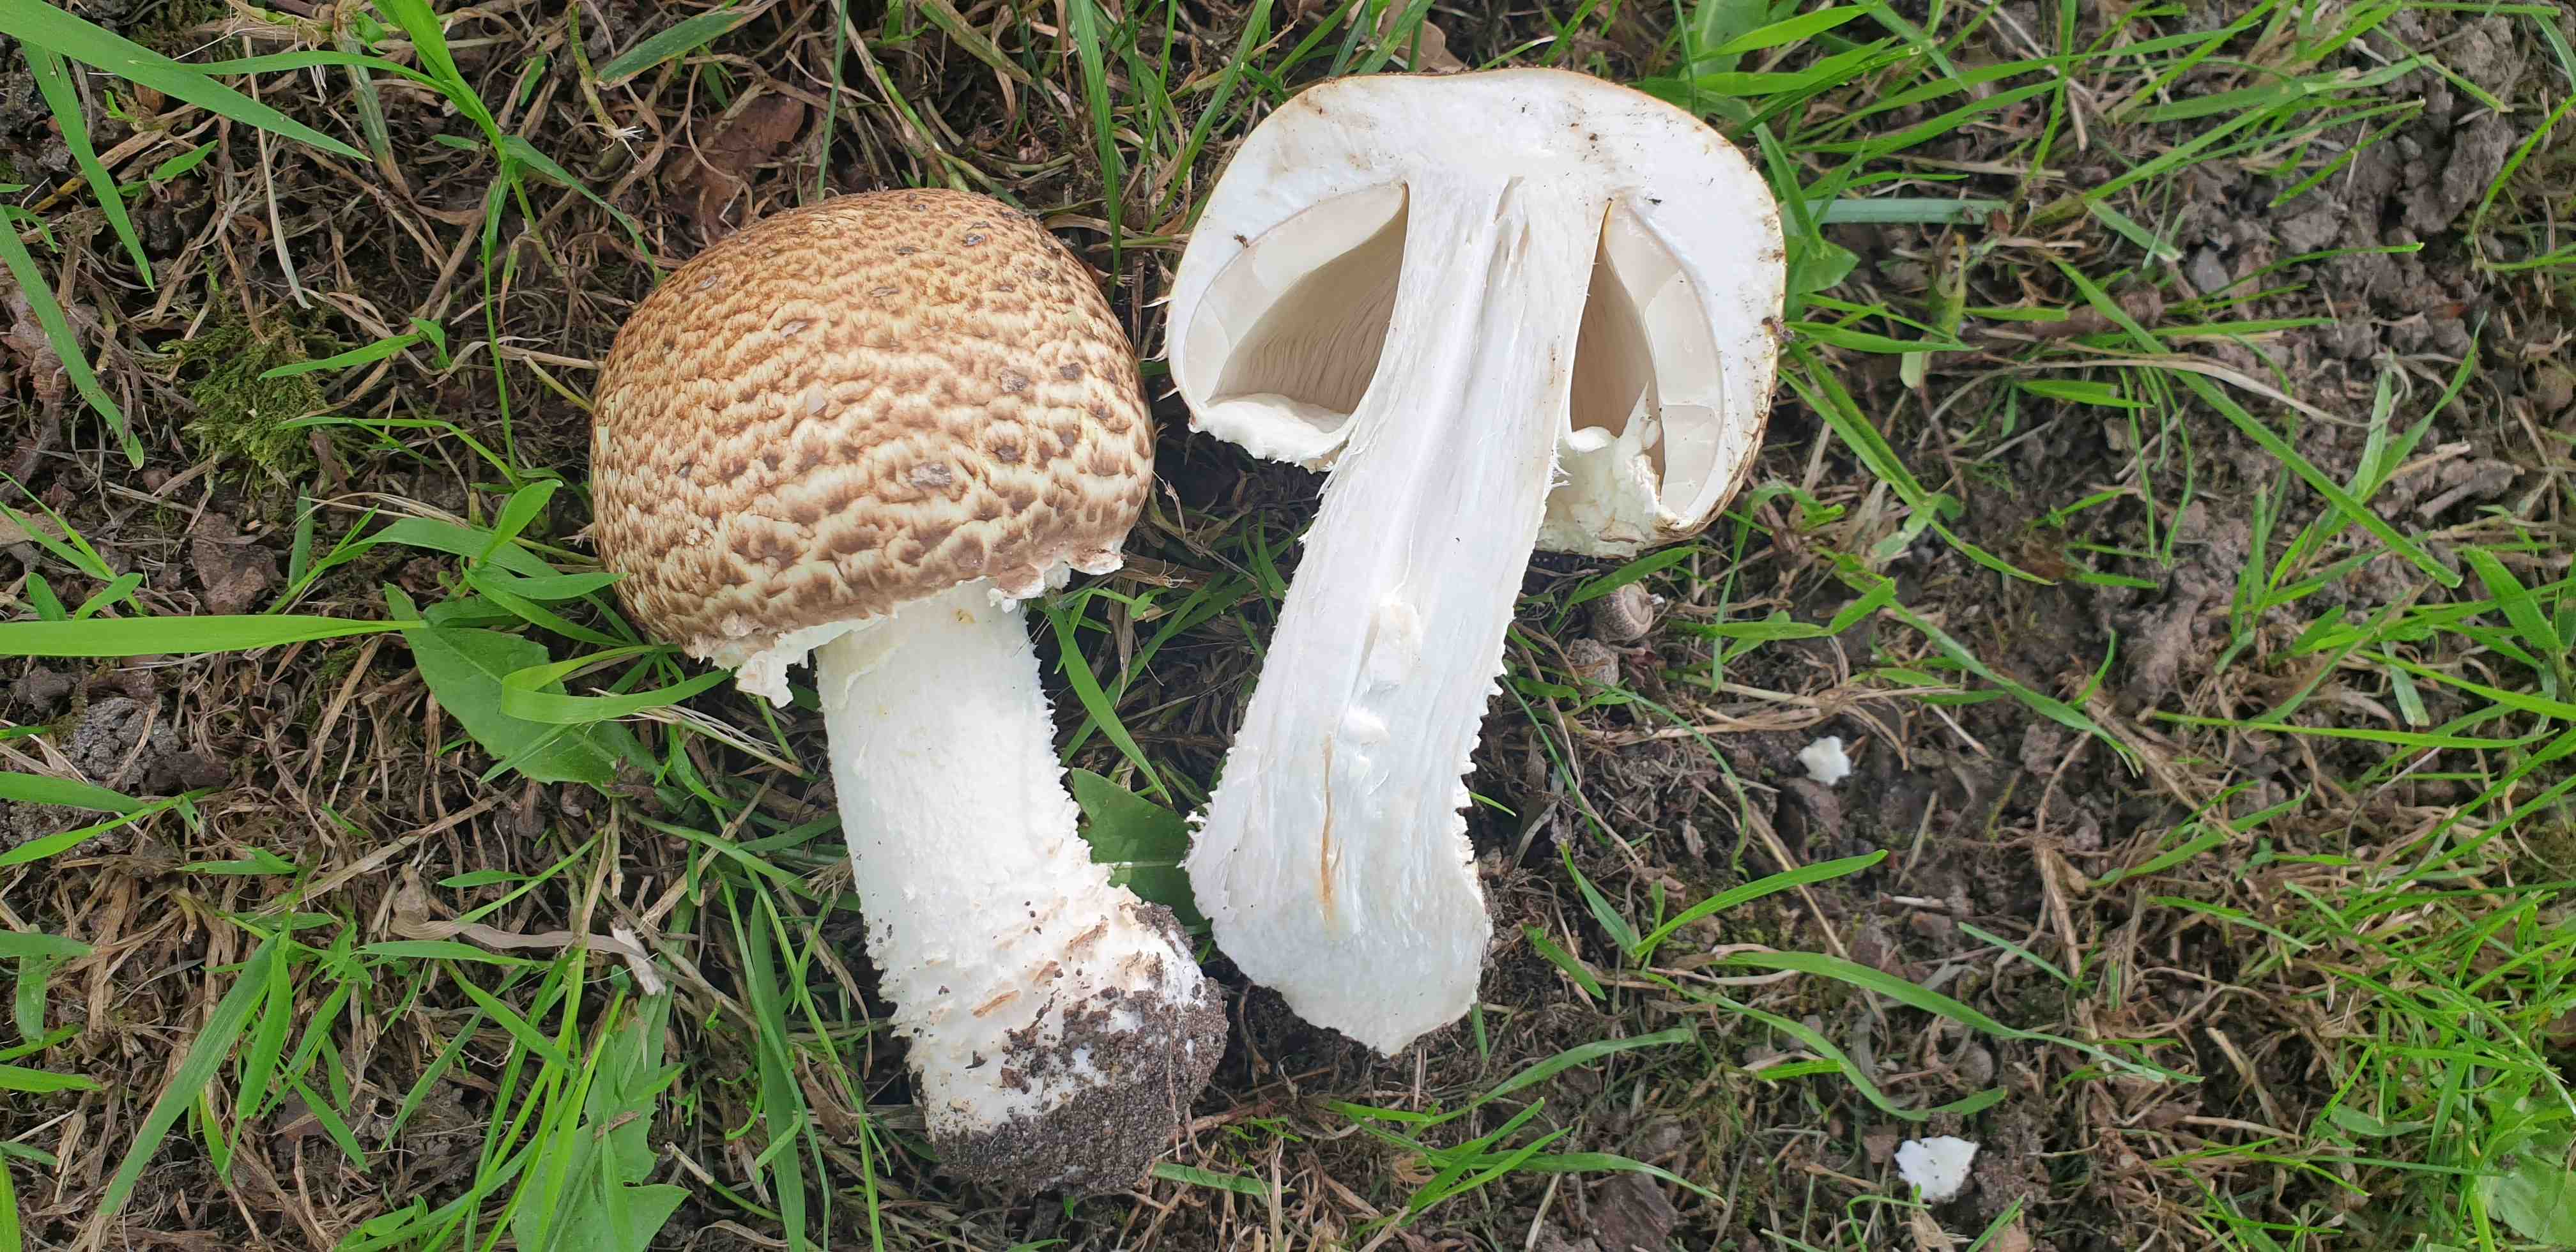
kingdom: Fungi
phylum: Basidiomycota
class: Agaricomycetes
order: Agaricales
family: Agaricaceae
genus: Agaricus
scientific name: Agaricus augustus
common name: prægtig champignon
